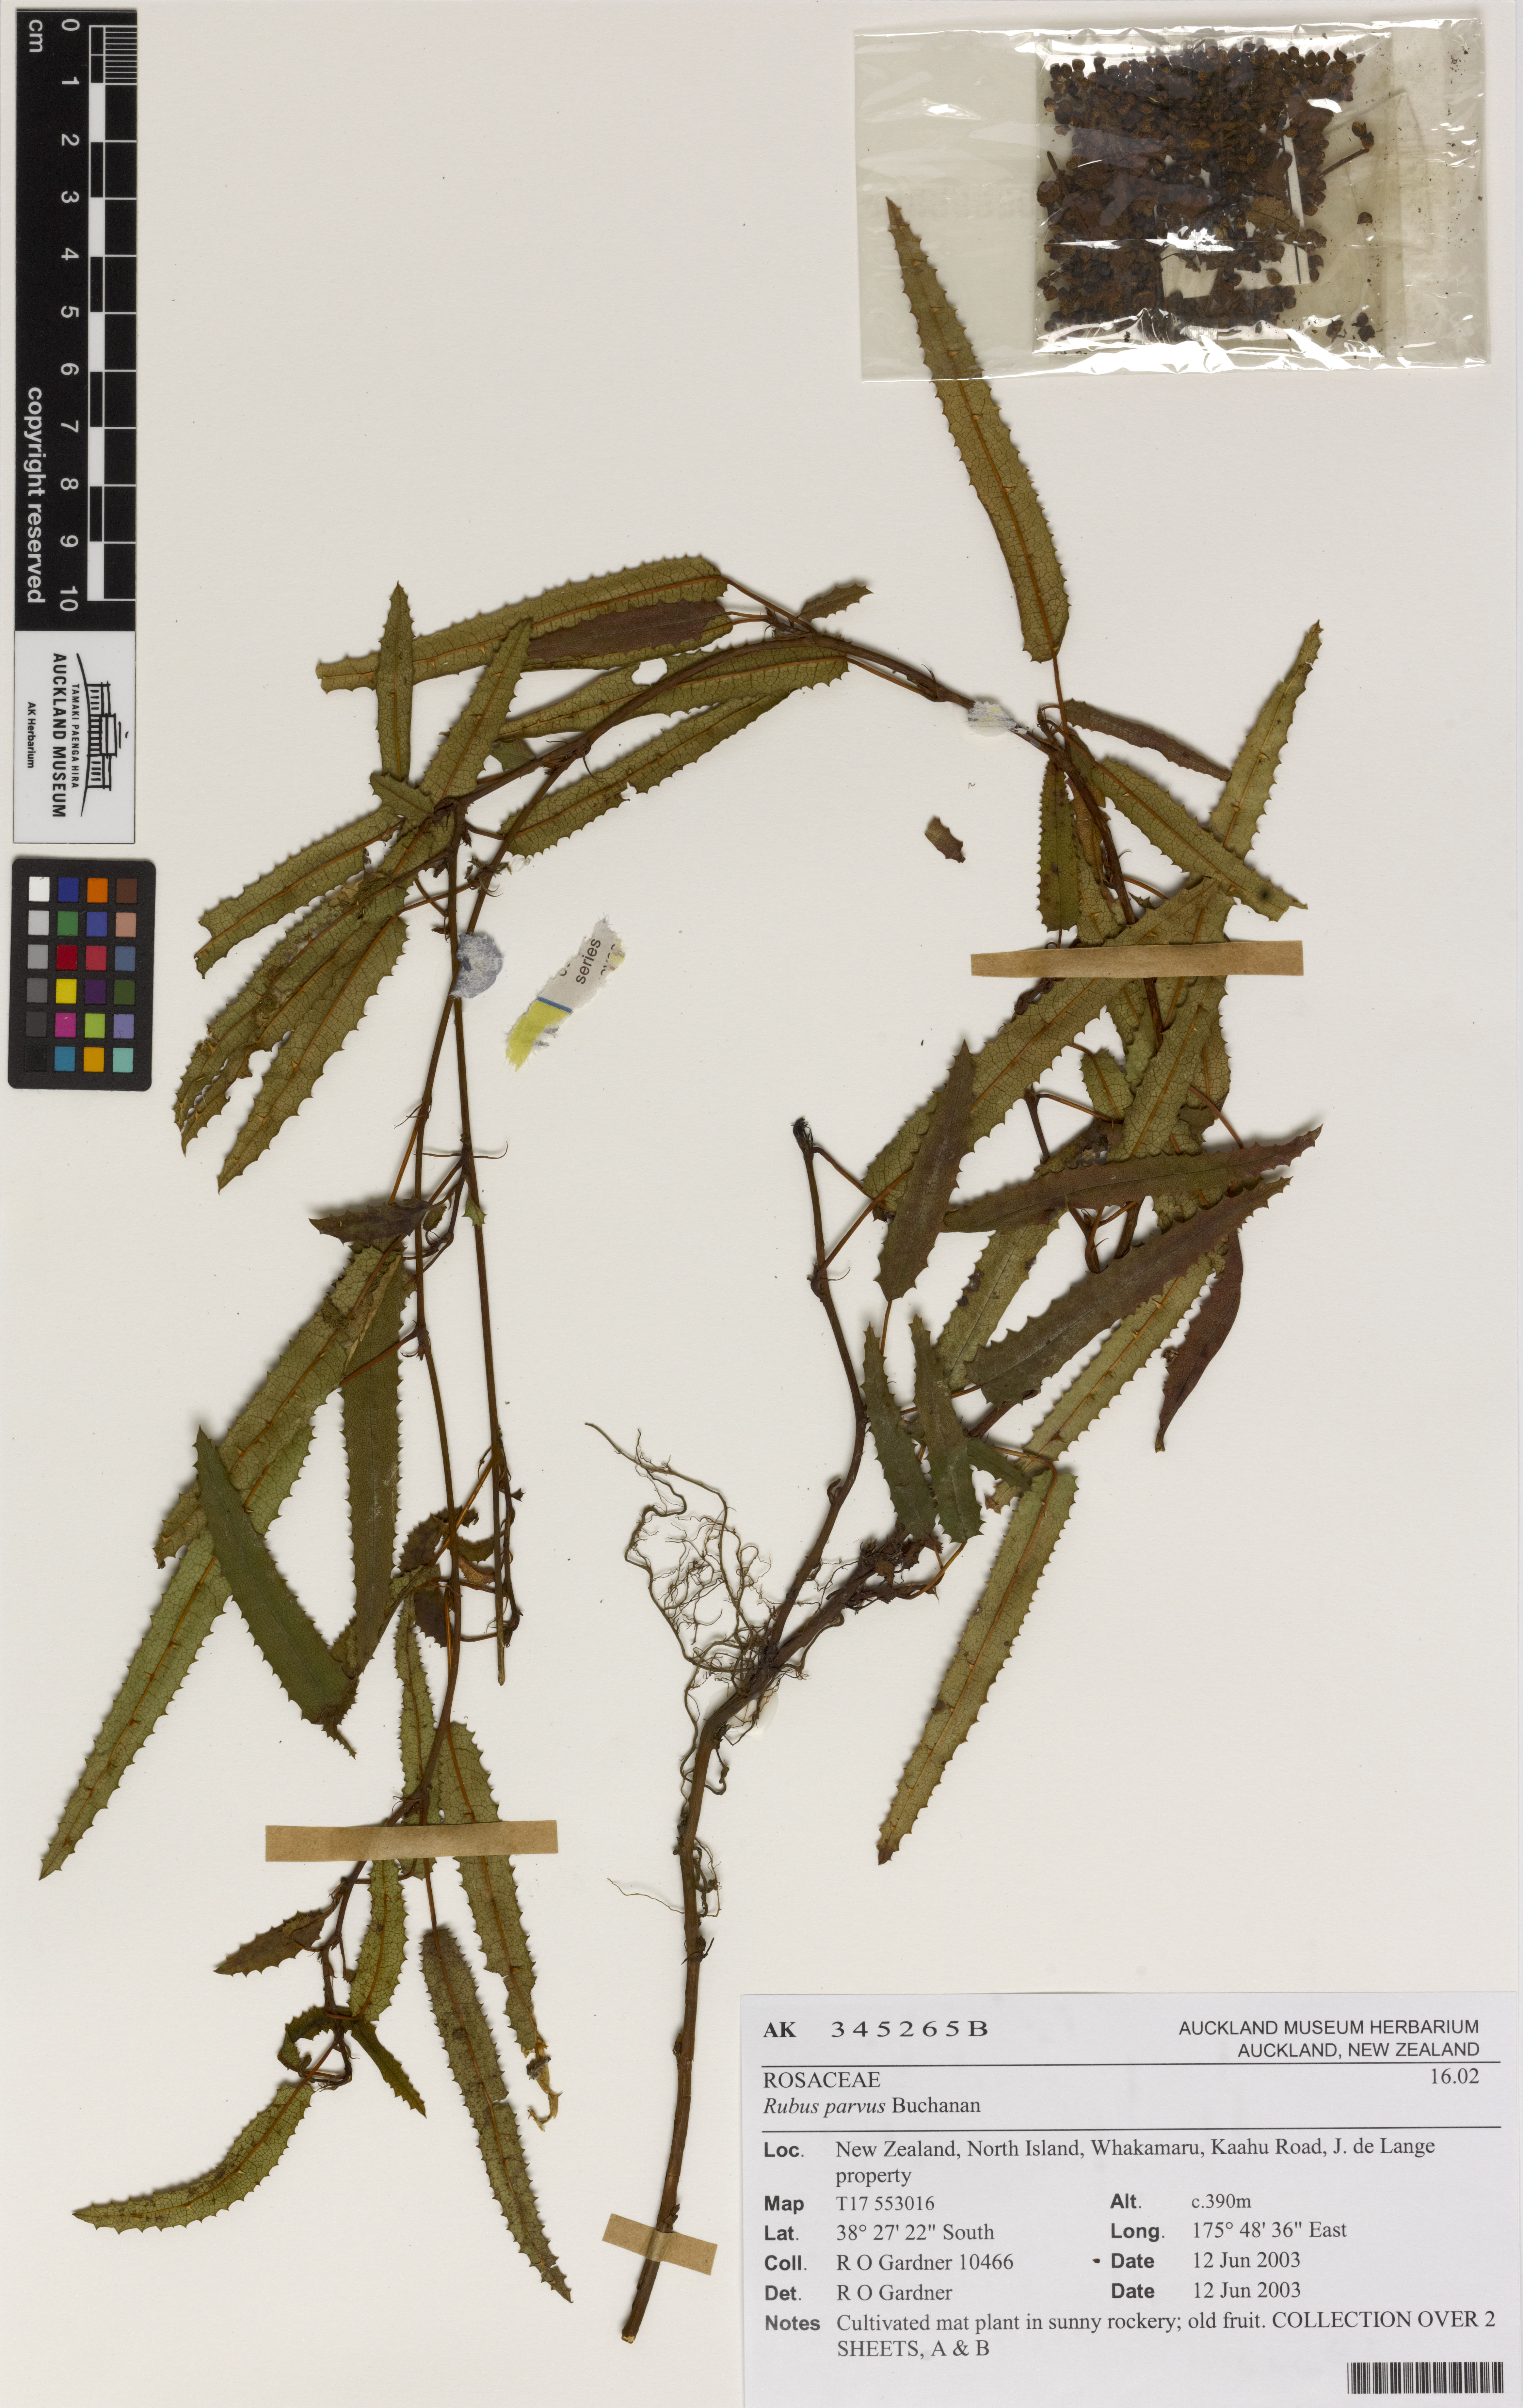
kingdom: Plantae
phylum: Tracheophyta
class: Magnoliopsida
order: Rosales
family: Rosaceae
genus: Rubus
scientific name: Rubus parvus
